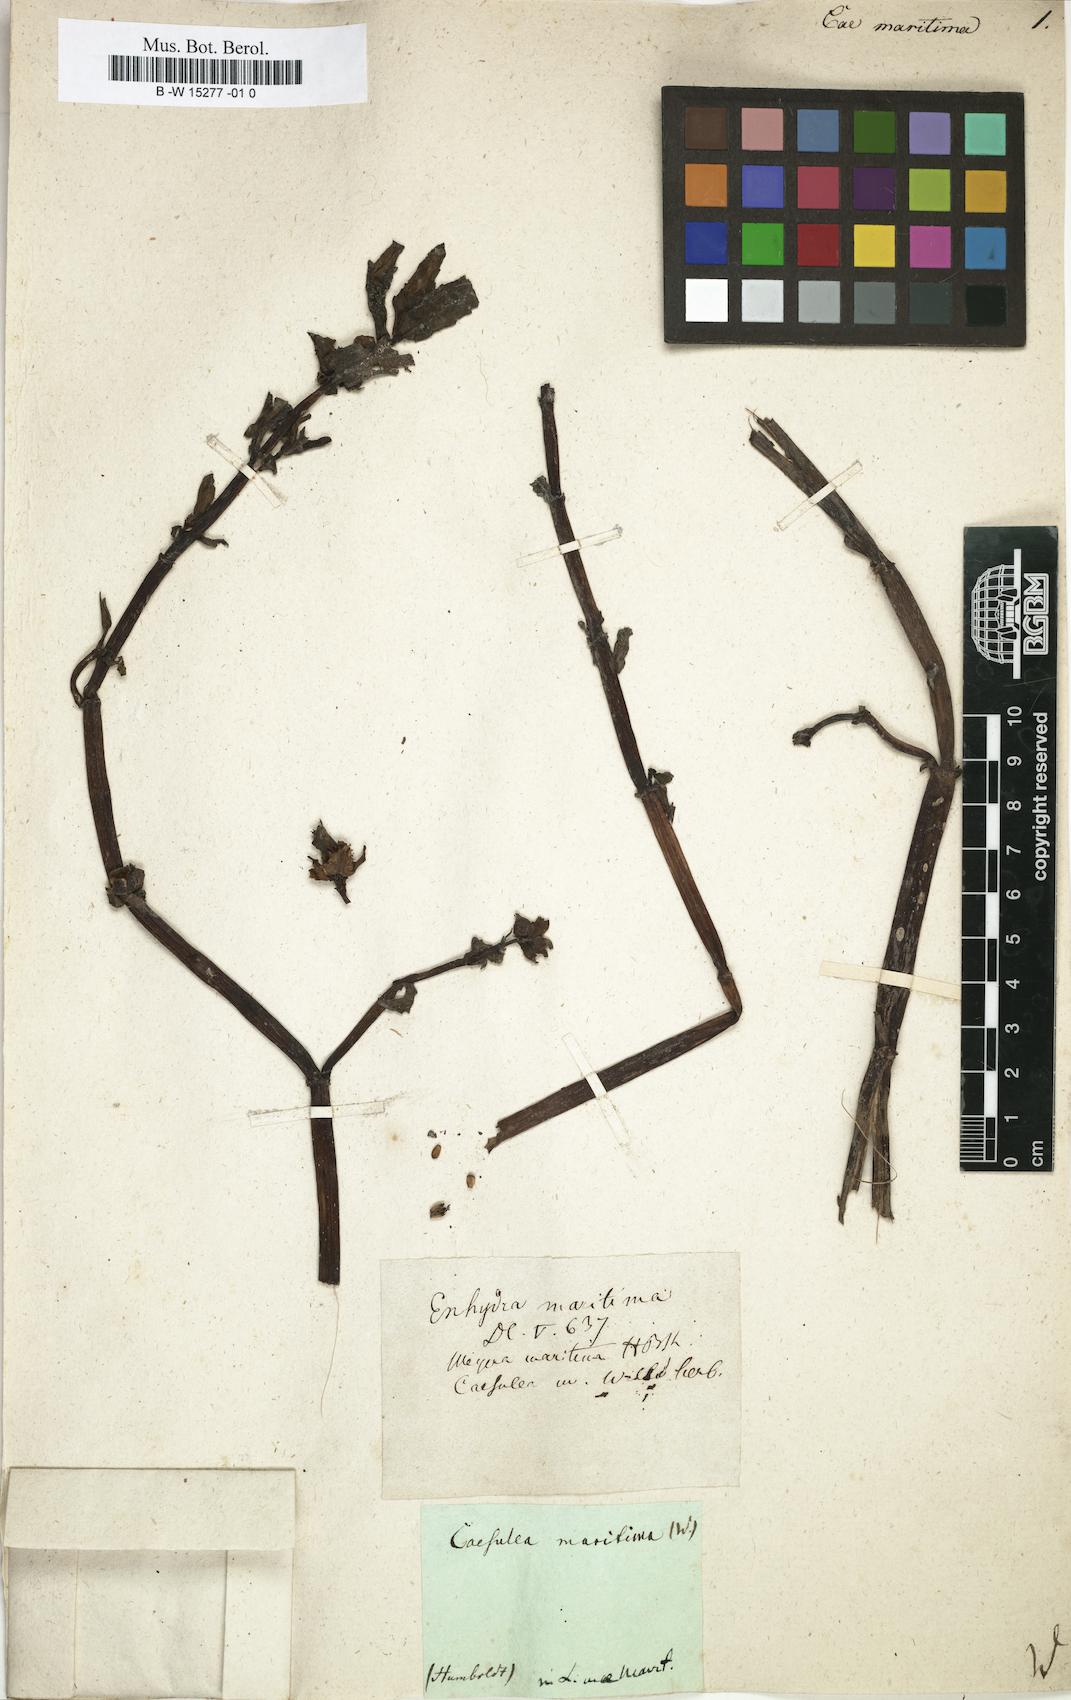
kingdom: Plantae
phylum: Tracheophyta
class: Magnoliopsida
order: Asterales
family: Asteraceae
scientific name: Asteraceae
